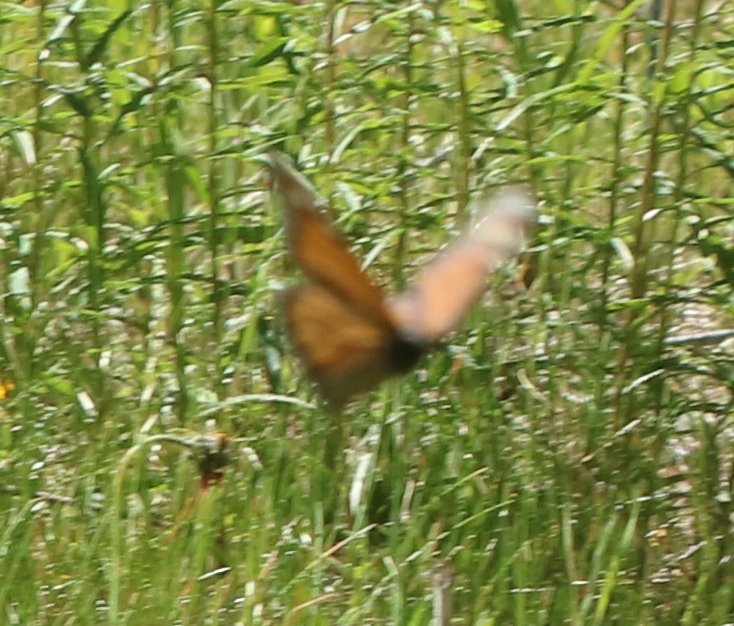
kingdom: Animalia
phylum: Arthropoda
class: Insecta
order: Lepidoptera
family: Nymphalidae
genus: Danaus
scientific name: Danaus plexippus
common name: Monarch
